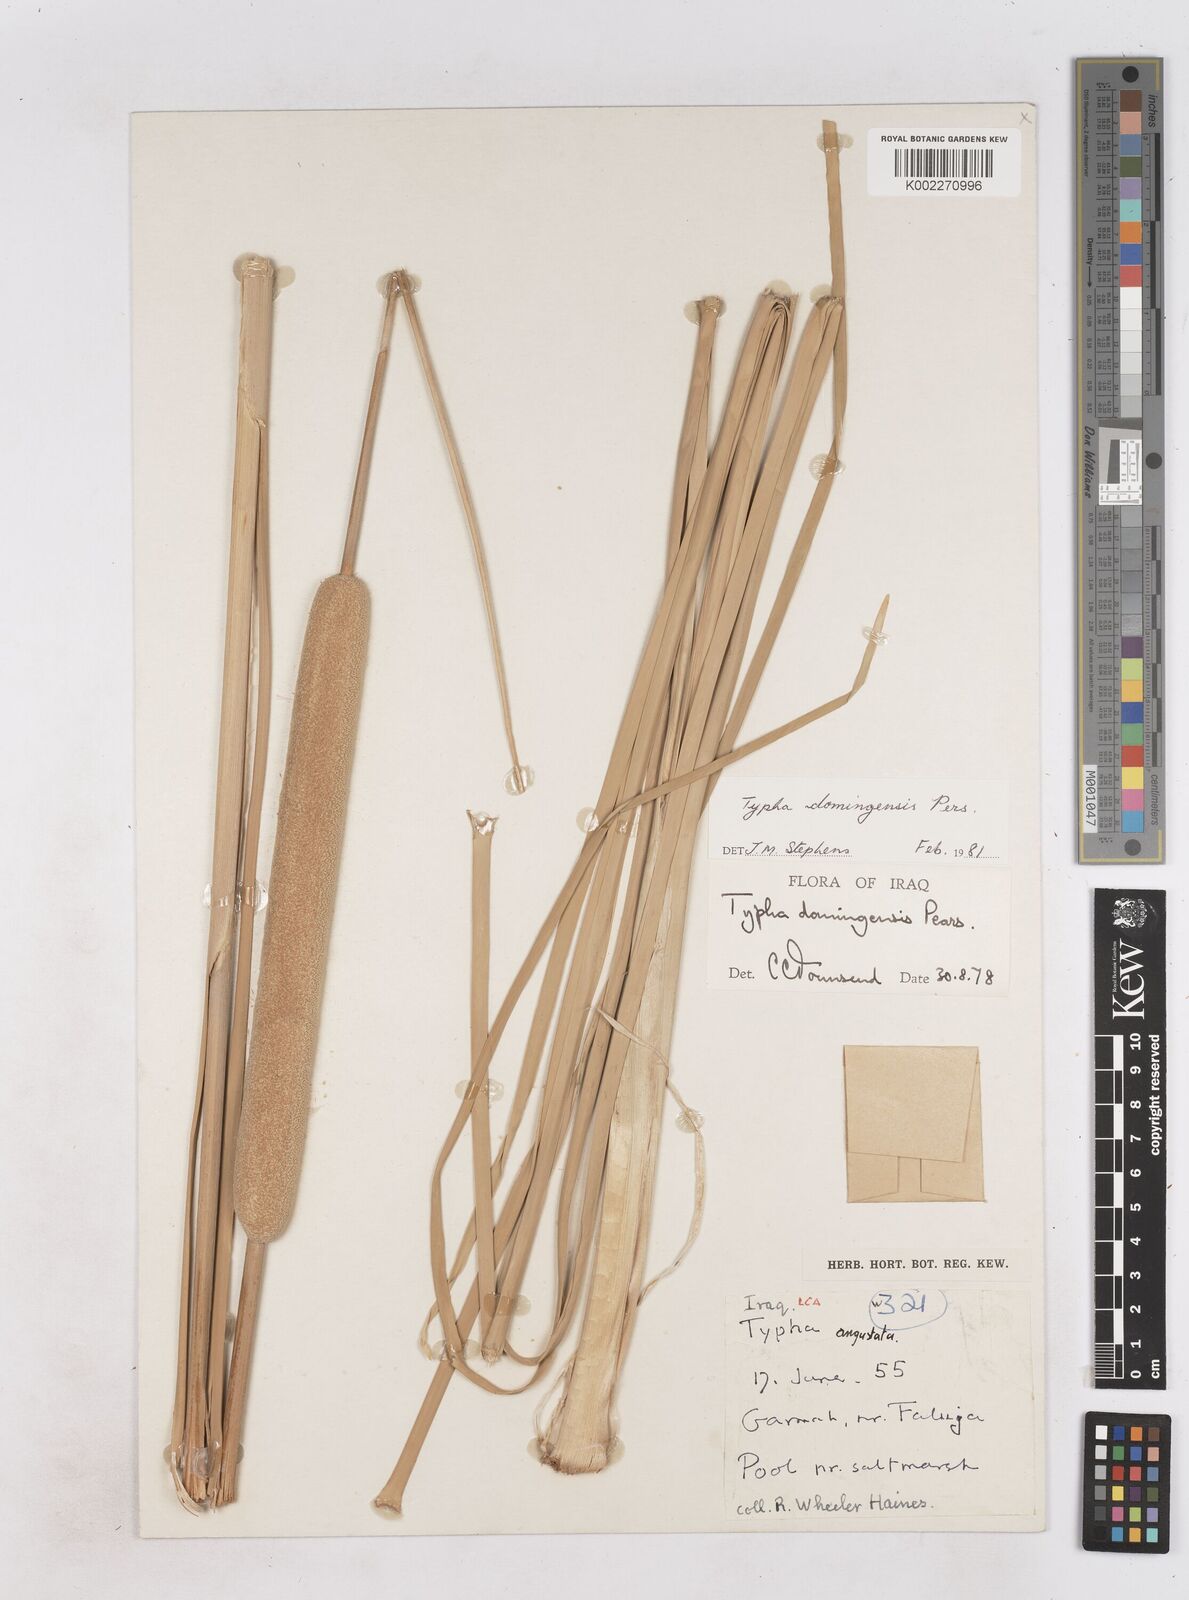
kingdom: Plantae
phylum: Tracheophyta
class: Liliopsida
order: Poales
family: Typhaceae
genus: Typha
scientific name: Typha domingensis
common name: Southern cattail
